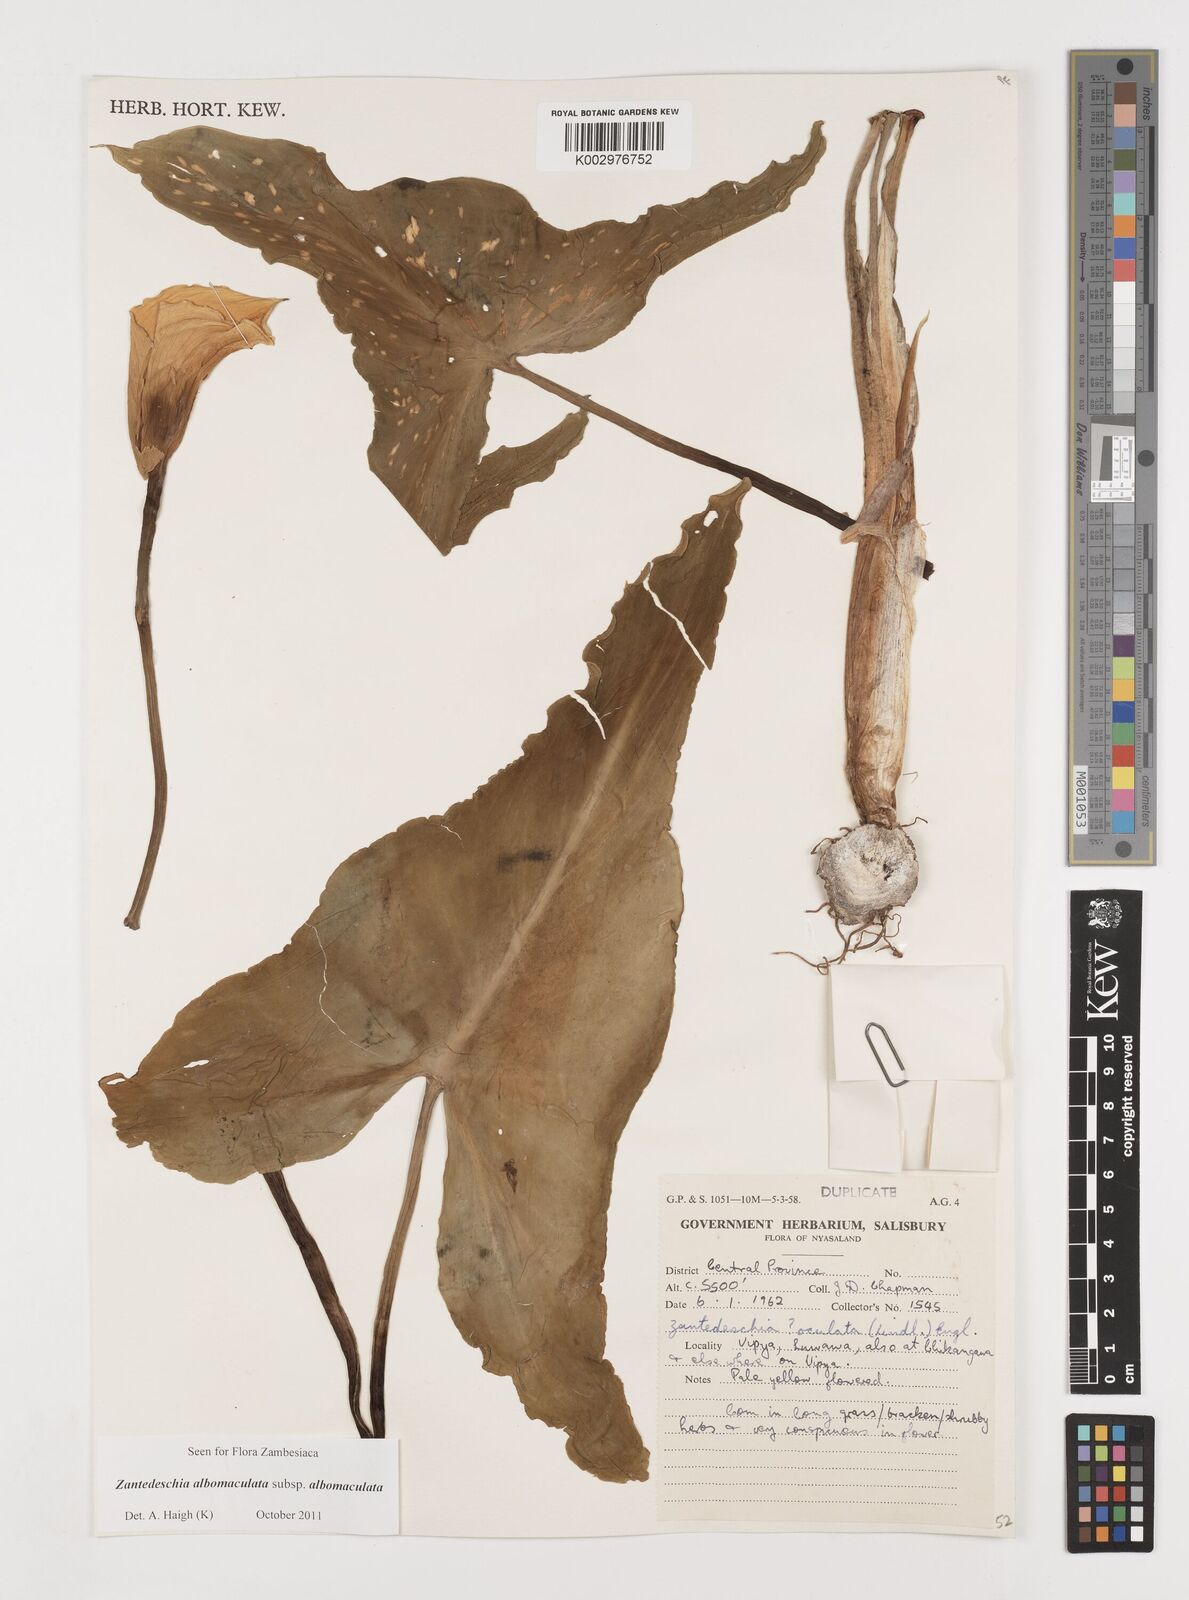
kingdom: Plantae
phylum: Tracheophyta
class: Liliopsida
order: Alismatales
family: Araceae
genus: Zantedeschia
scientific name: Zantedeschia albomaculata
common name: Spotted calla lily
